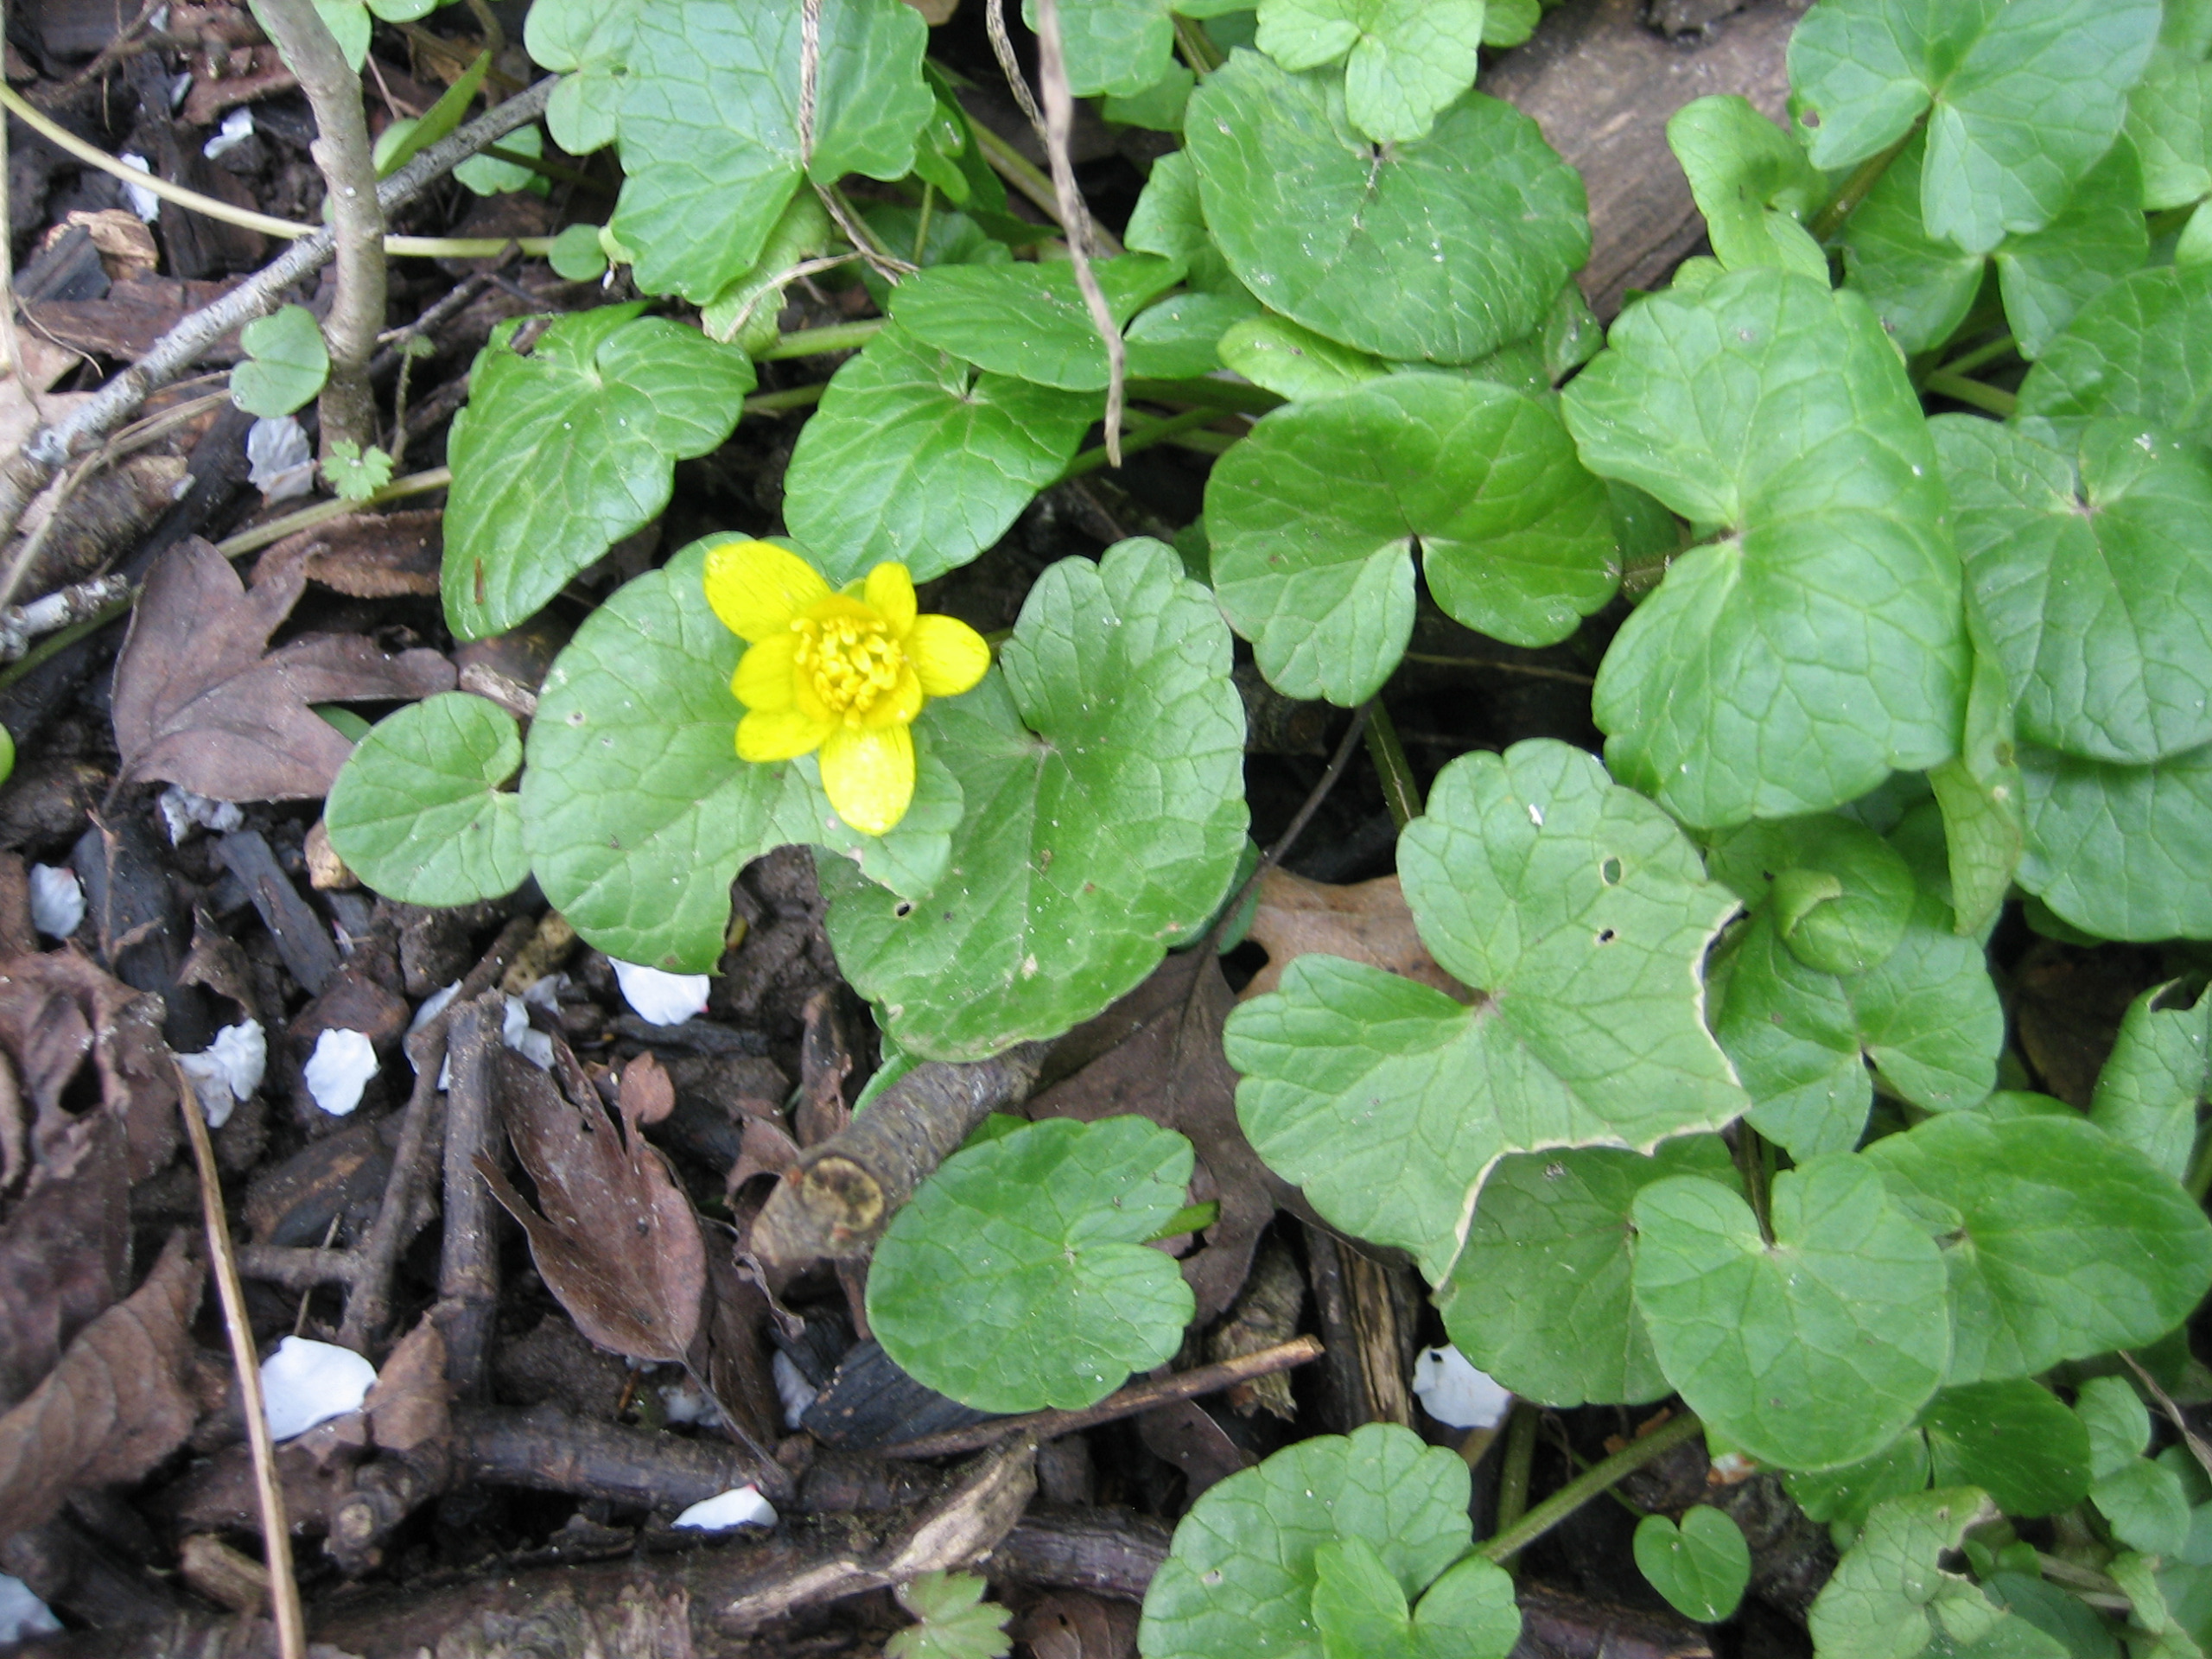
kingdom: Plantae
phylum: Tracheophyta
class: Magnoliopsida
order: Ranunculales
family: Ranunculaceae
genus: Ficaria
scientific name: Ficaria verna
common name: Vorterod
